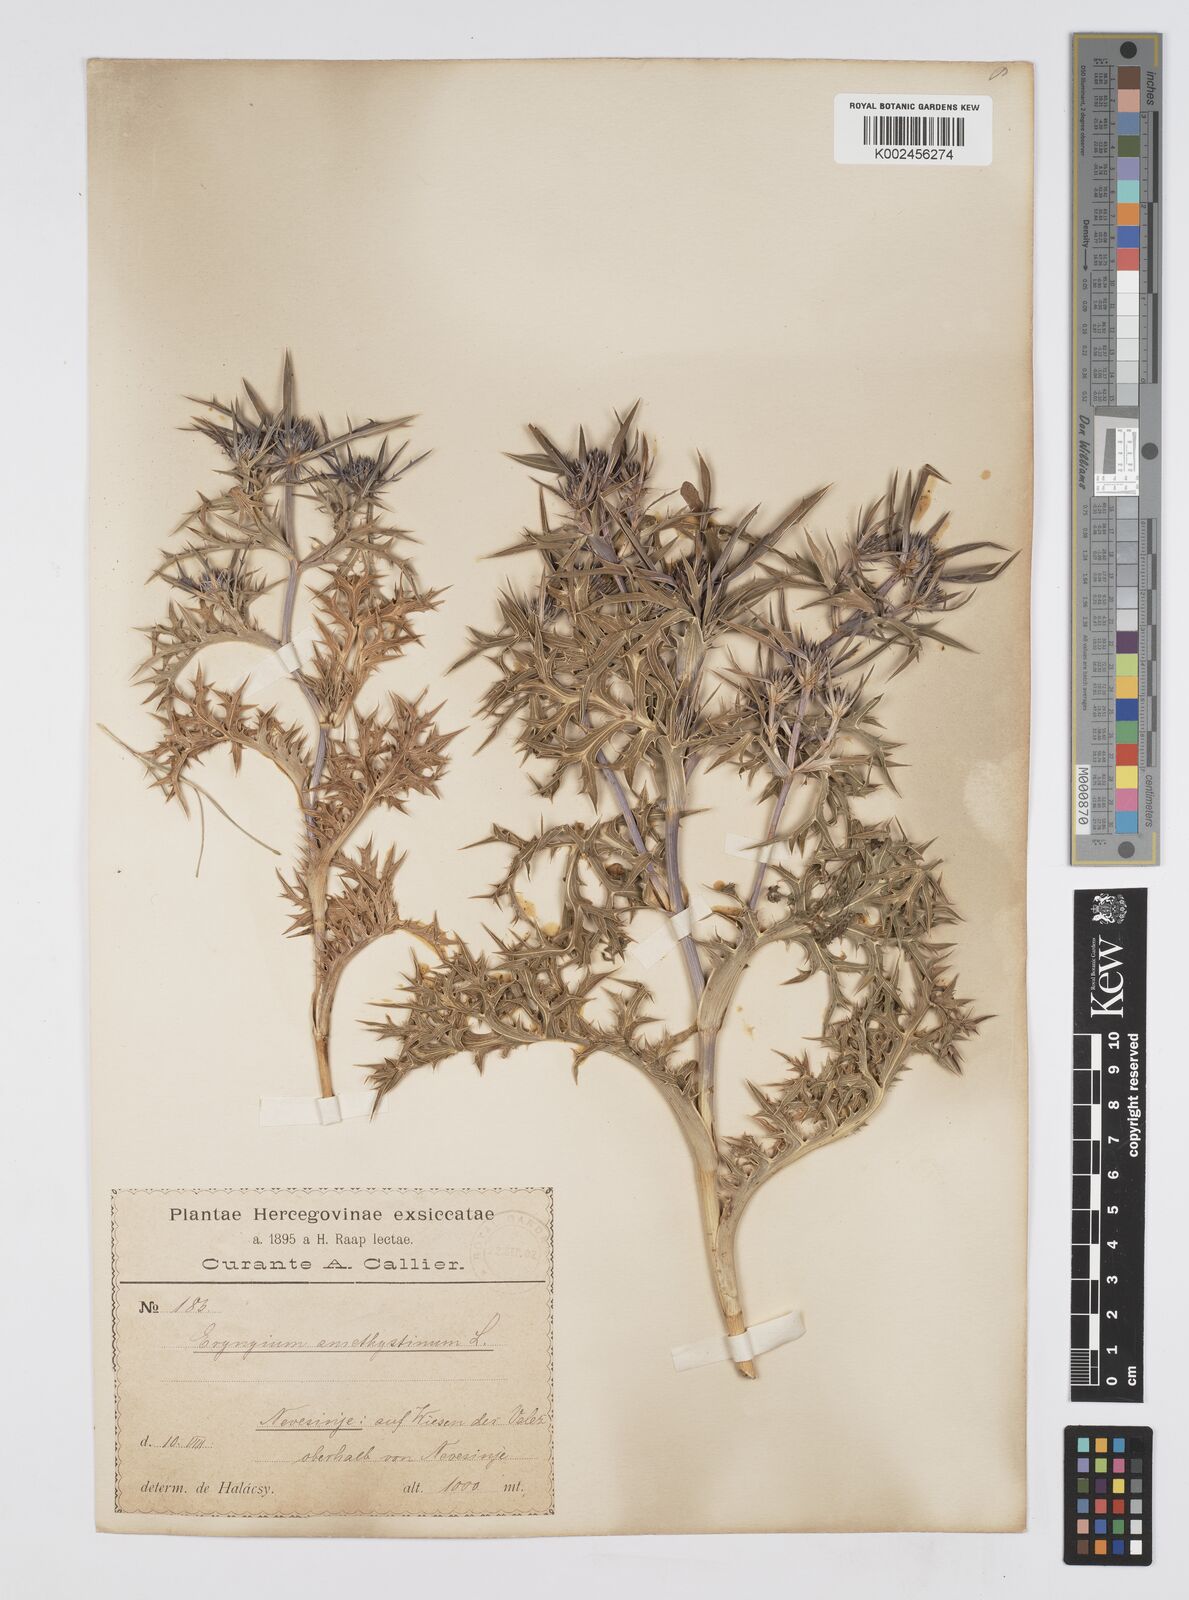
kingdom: Plantae
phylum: Tracheophyta
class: Magnoliopsida
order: Apiales
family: Apiaceae
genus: Eryngium
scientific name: Eryngium amethystinum
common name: Amethyst eryngo
